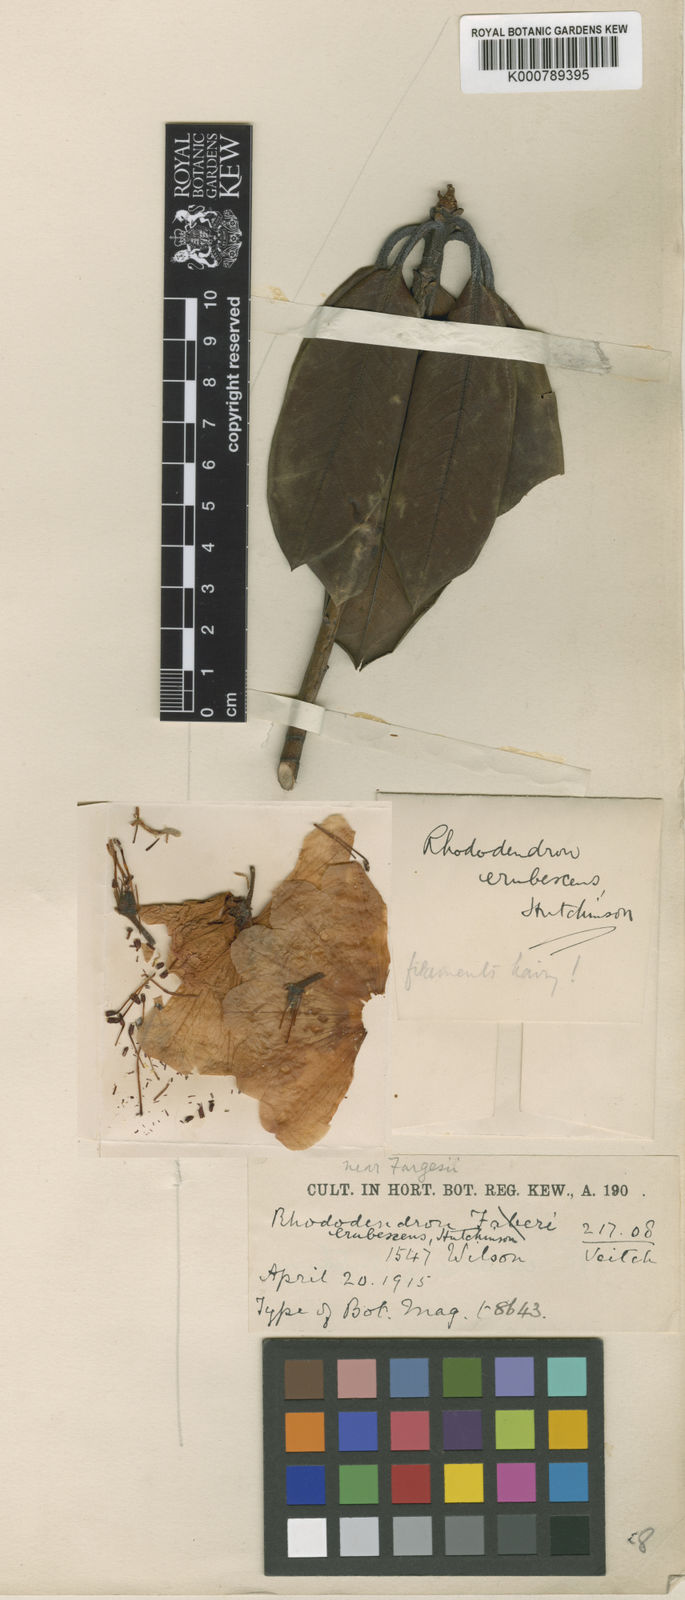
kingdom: Plantae
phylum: Tracheophyta
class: Magnoliopsida
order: Ericales
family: Ericaceae
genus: Rhododendron
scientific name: Rhododendron oreodoxa
